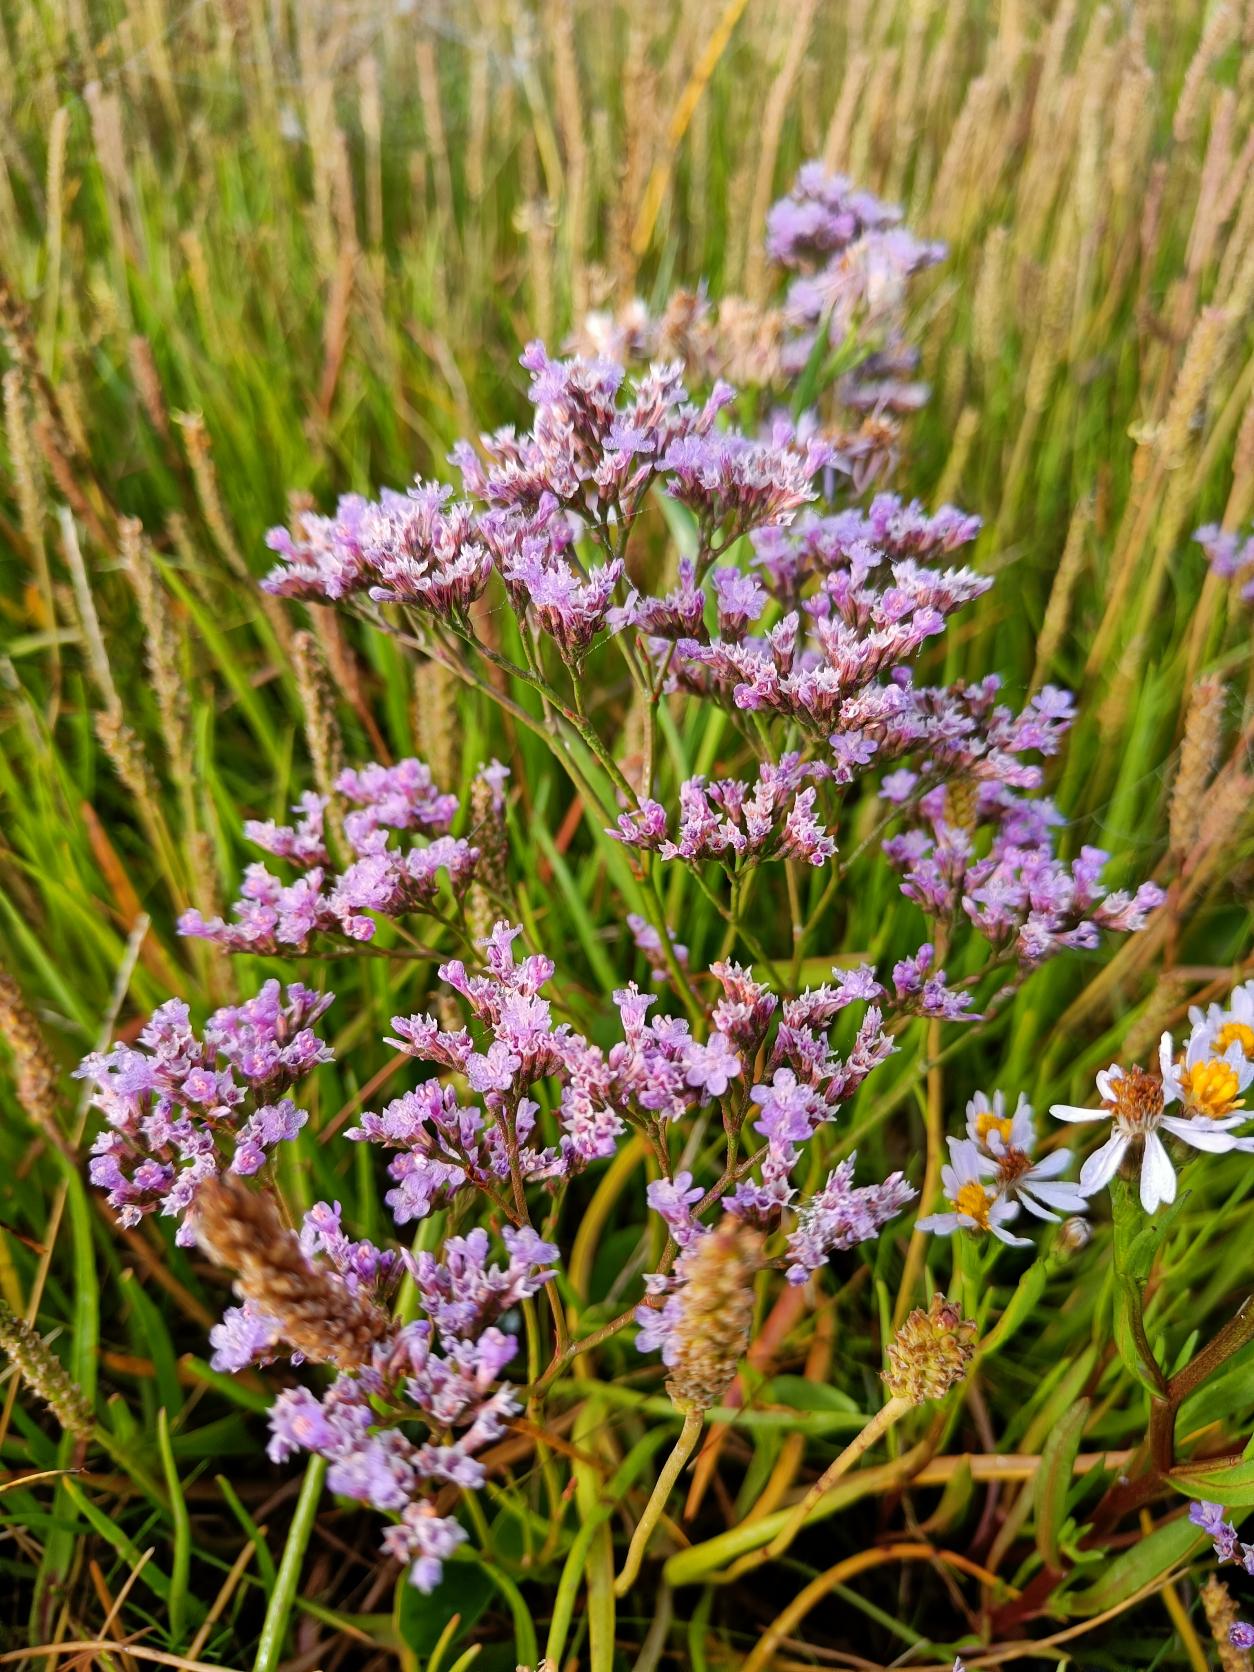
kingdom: Plantae
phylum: Tracheophyta
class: Magnoliopsida
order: Caryophyllales
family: Plumbaginaceae
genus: Limonium
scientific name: Limonium vulgare
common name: Tætblomstret hindebæger
